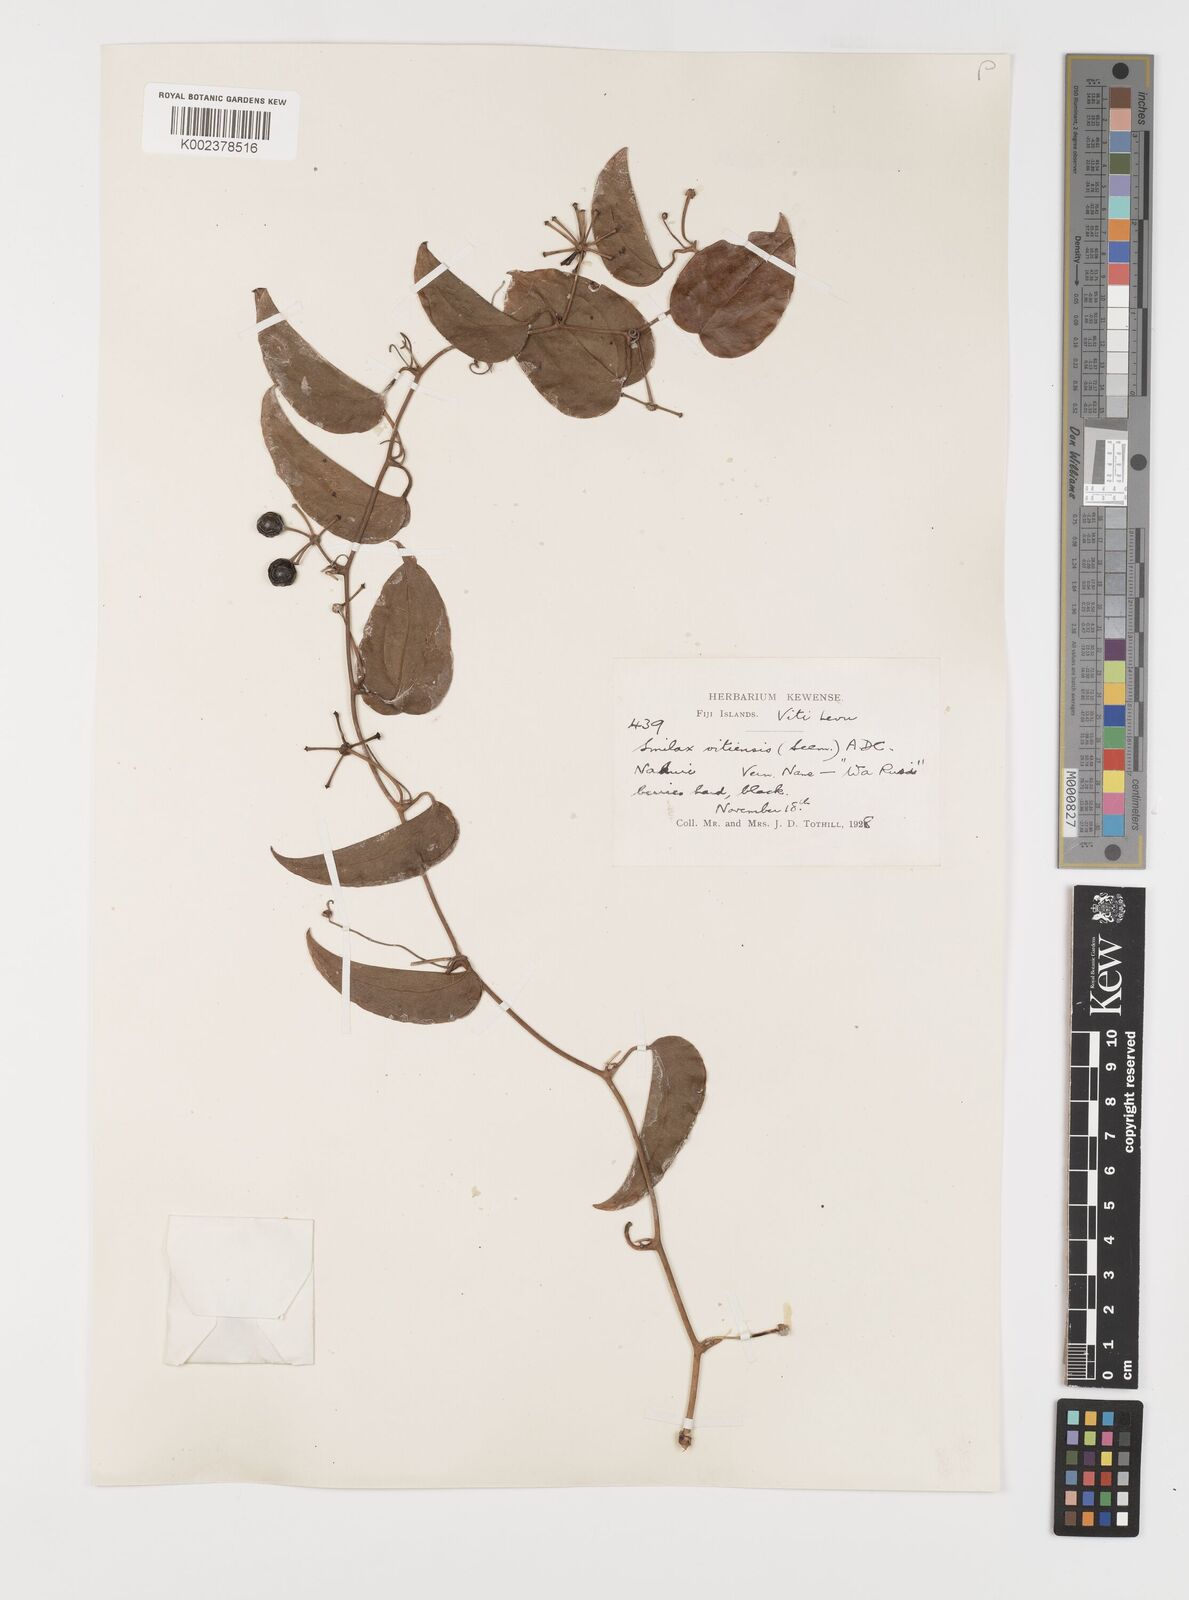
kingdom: Plantae
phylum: Tracheophyta
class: Liliopsida
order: Liliales
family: Smilacaceae
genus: Smilax
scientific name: Smilax vitiensis
